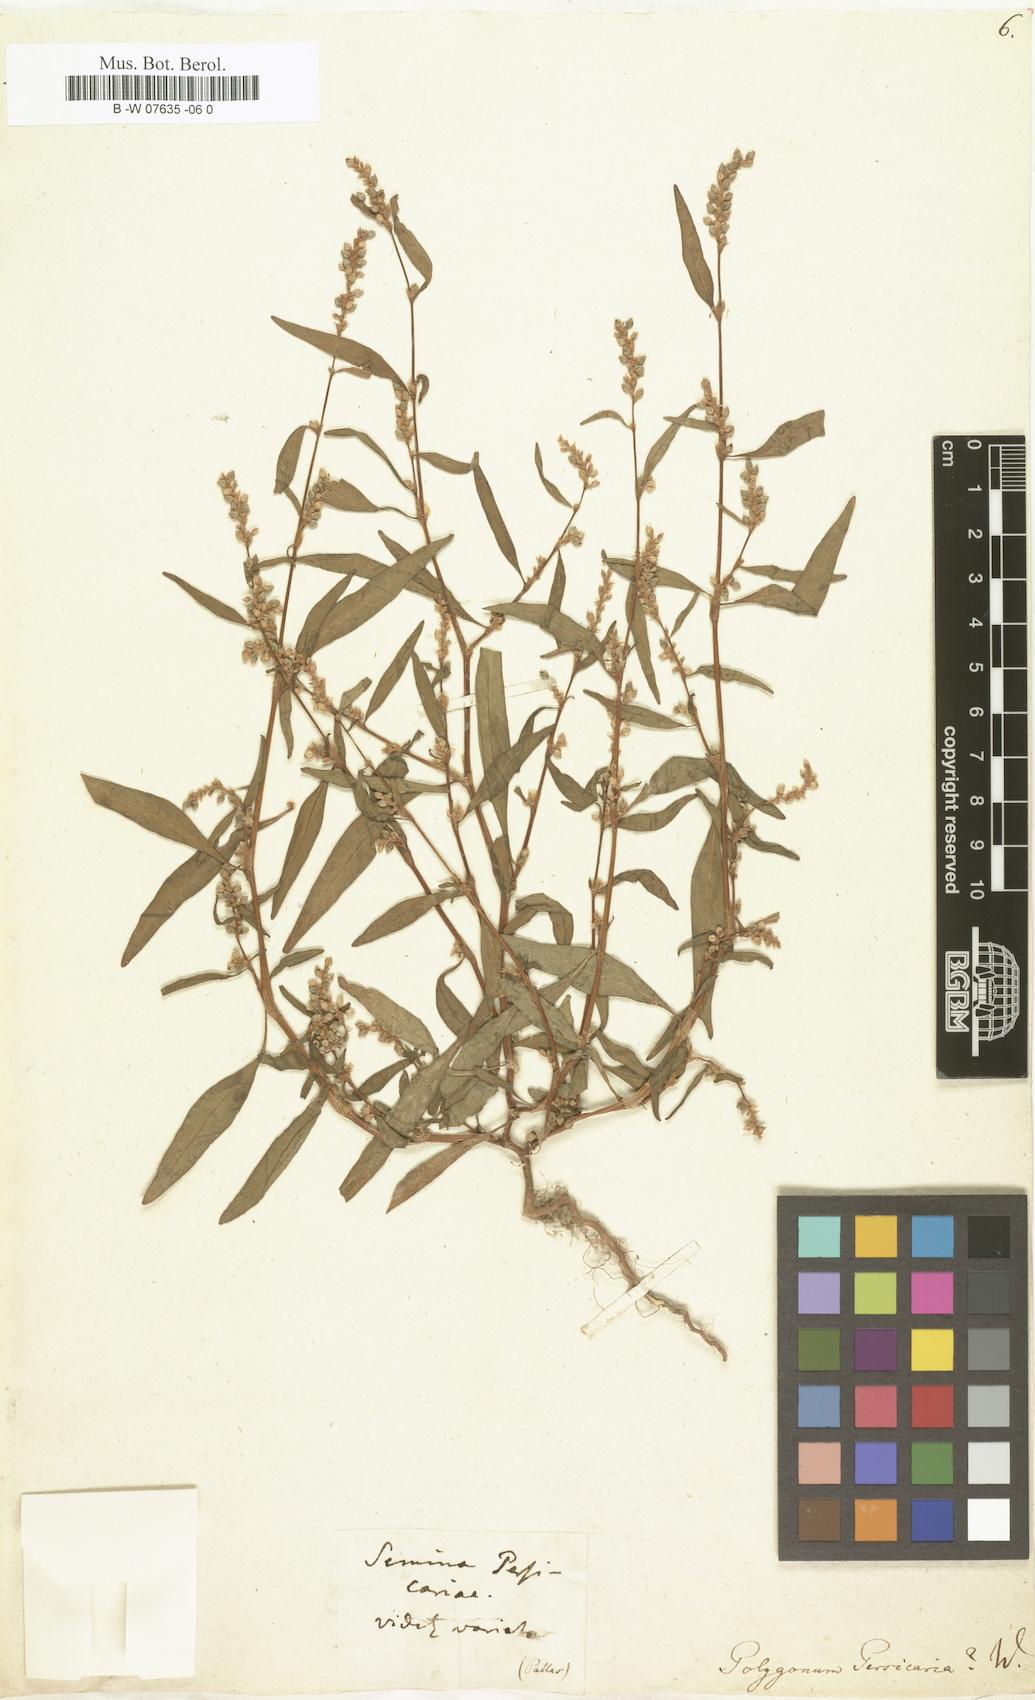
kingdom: Plantae
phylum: Tracheophyta
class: Magnoliopsida
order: Caryophyllales
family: Polygonaceae
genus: Polygonum
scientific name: Polygonum persicaria
